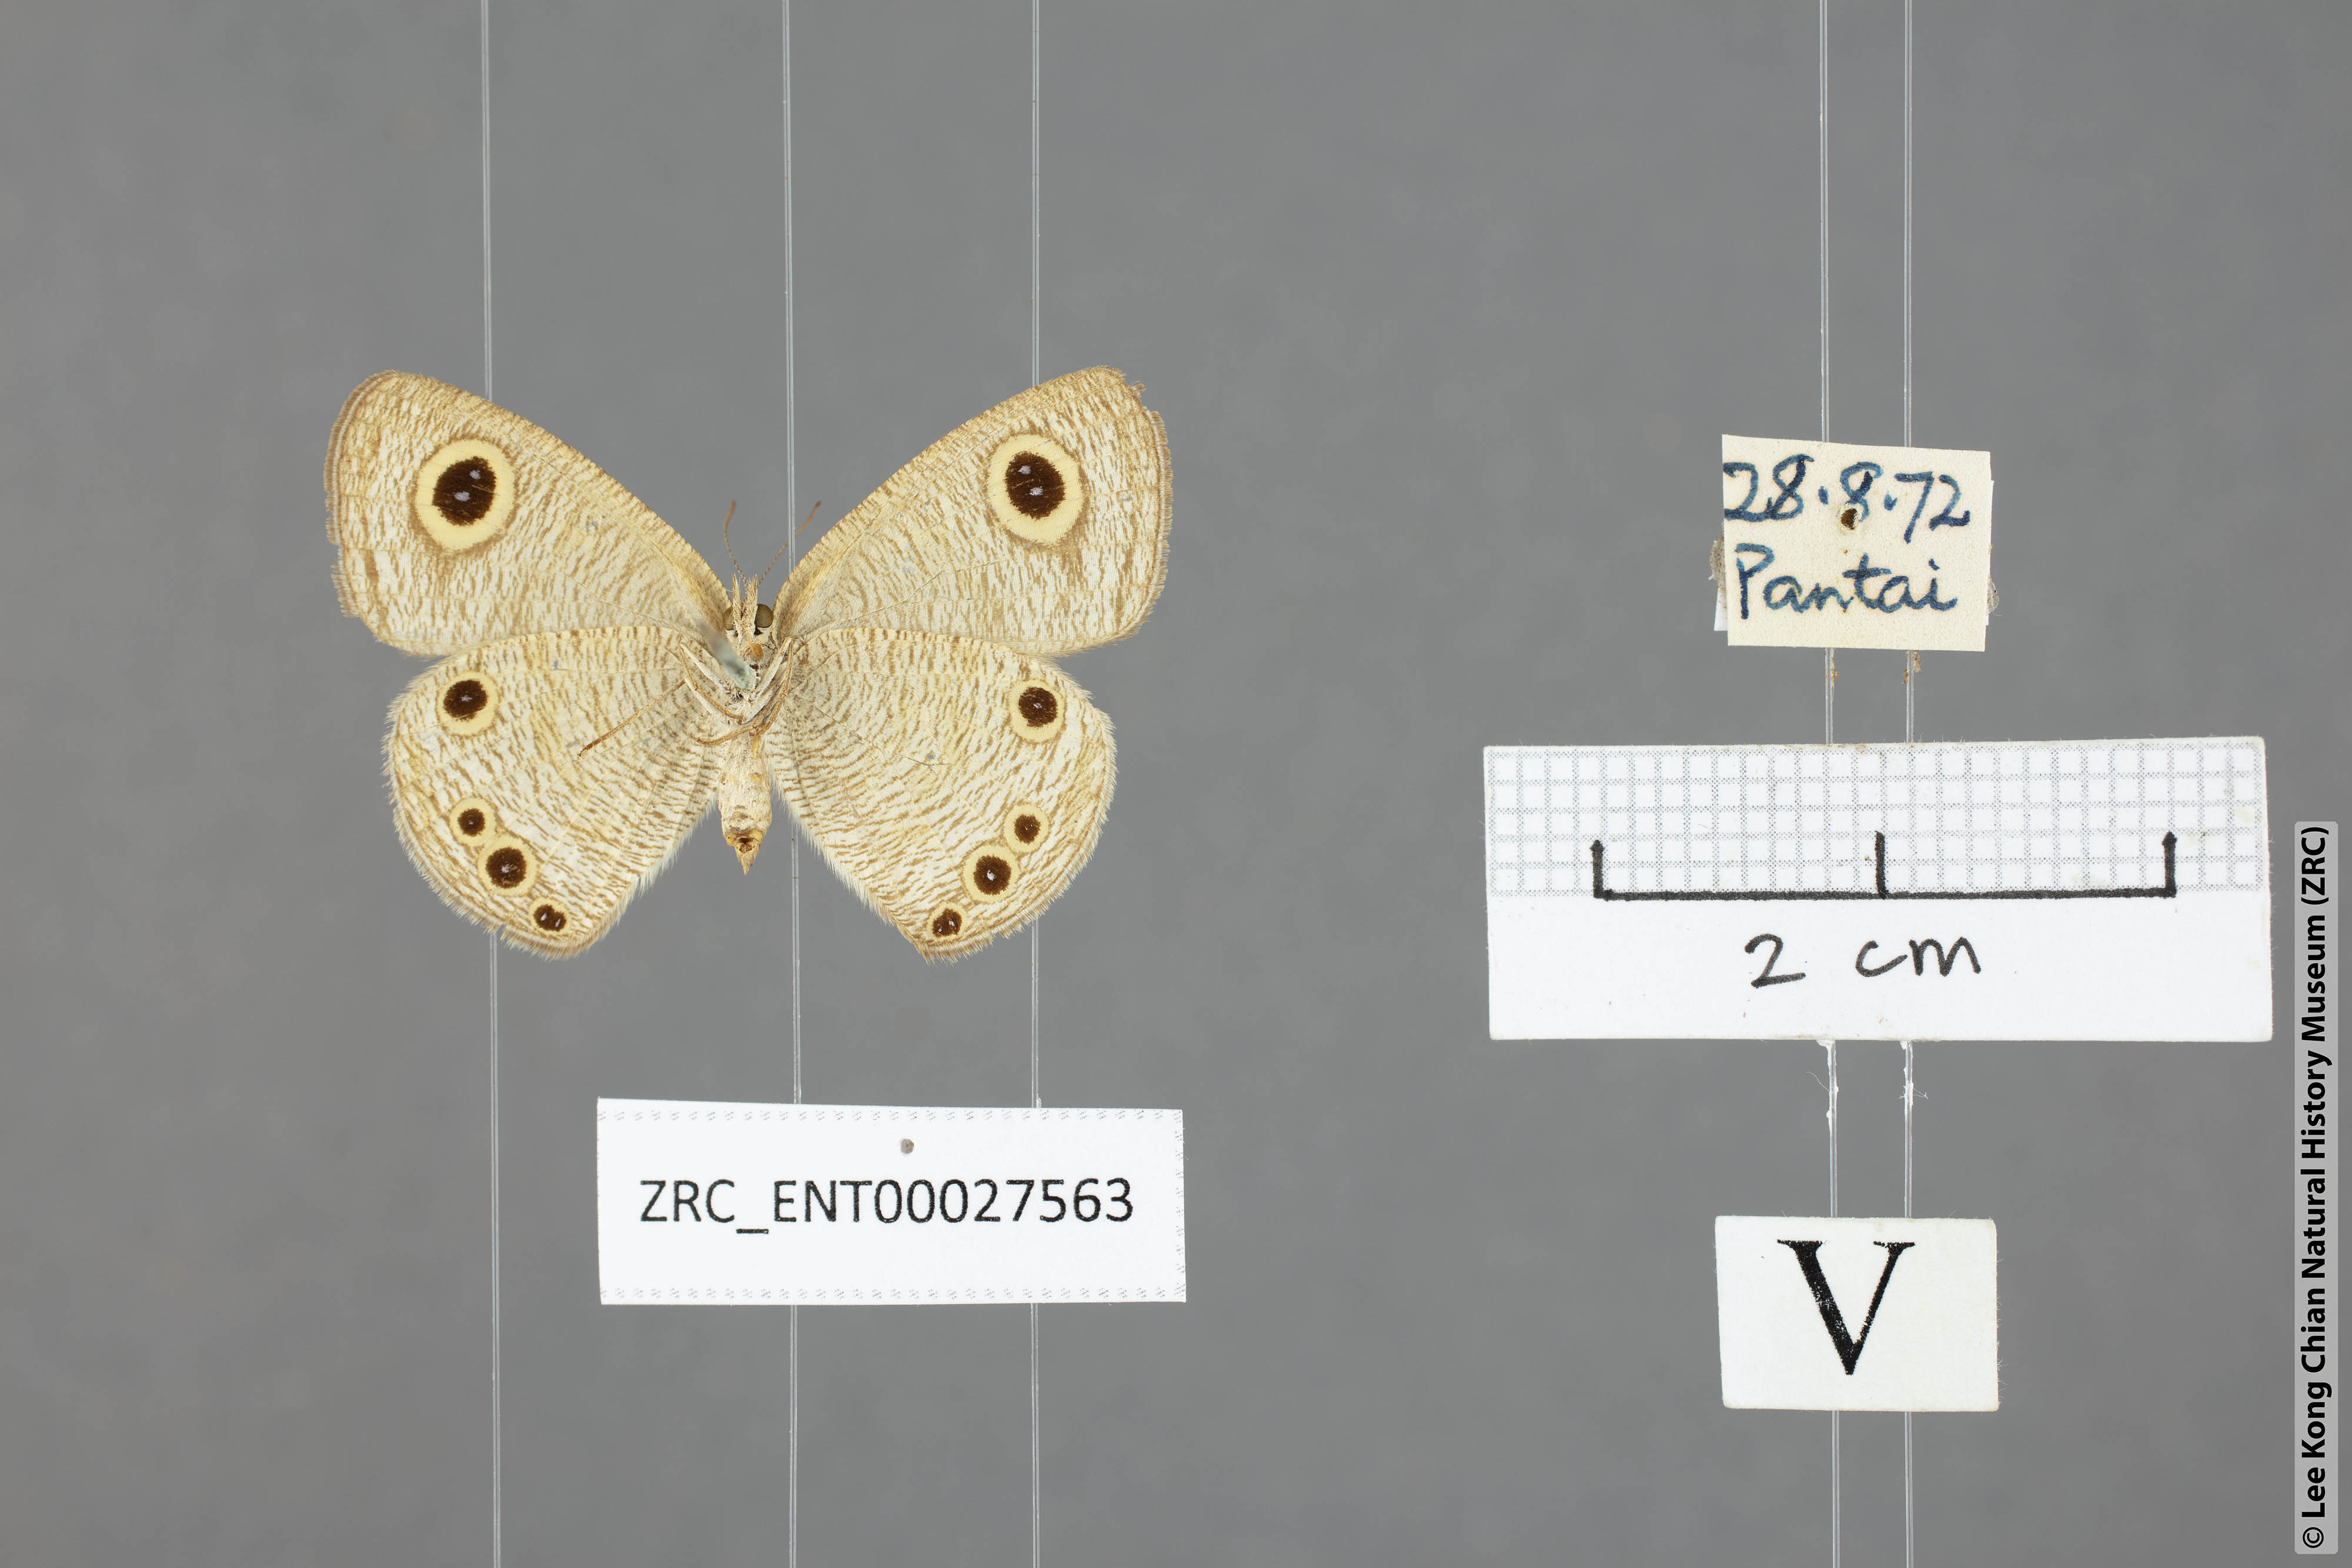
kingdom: Animalia
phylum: Arthropoda
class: Insecta
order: Lepidoptera
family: Nymphalidae
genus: Ypthima
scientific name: Ypthima huebneri
